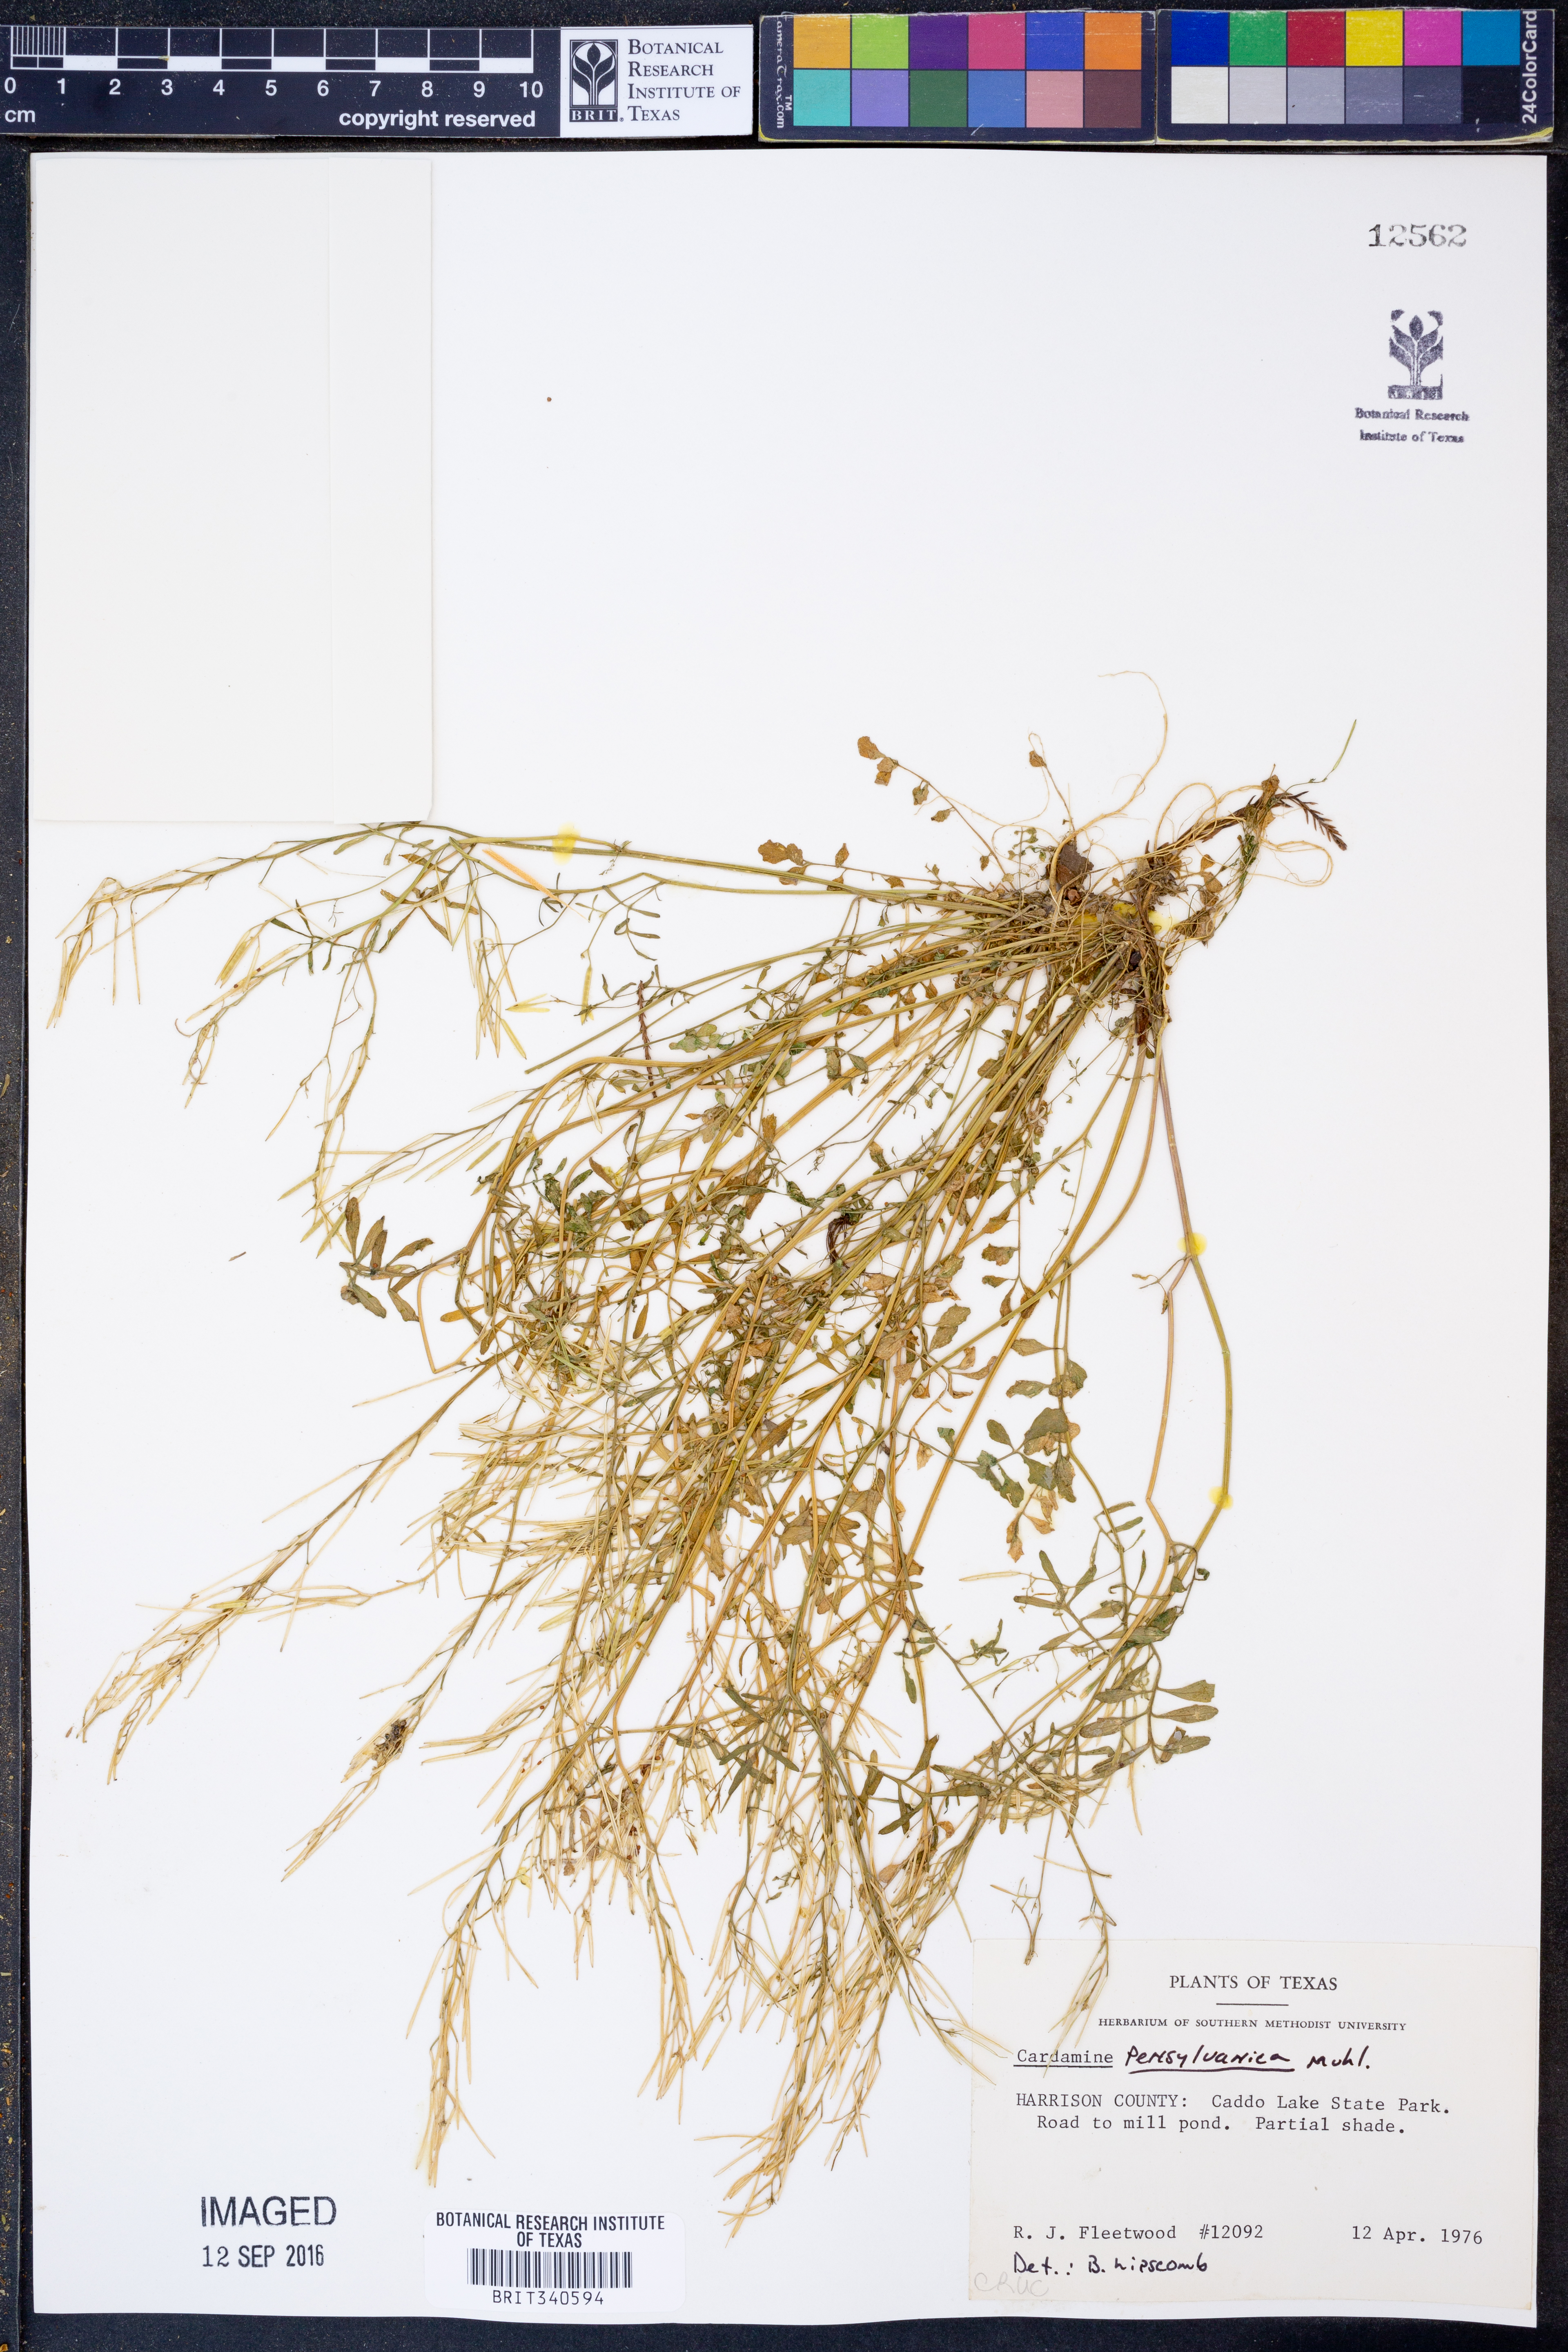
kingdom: Plantae
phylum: Tracheophyta
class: Magnoliopsida
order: Brassicales
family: Brassicaceae
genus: Cardamine
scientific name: Cardamine pensylvanica
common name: Pennsylvania bittercress
